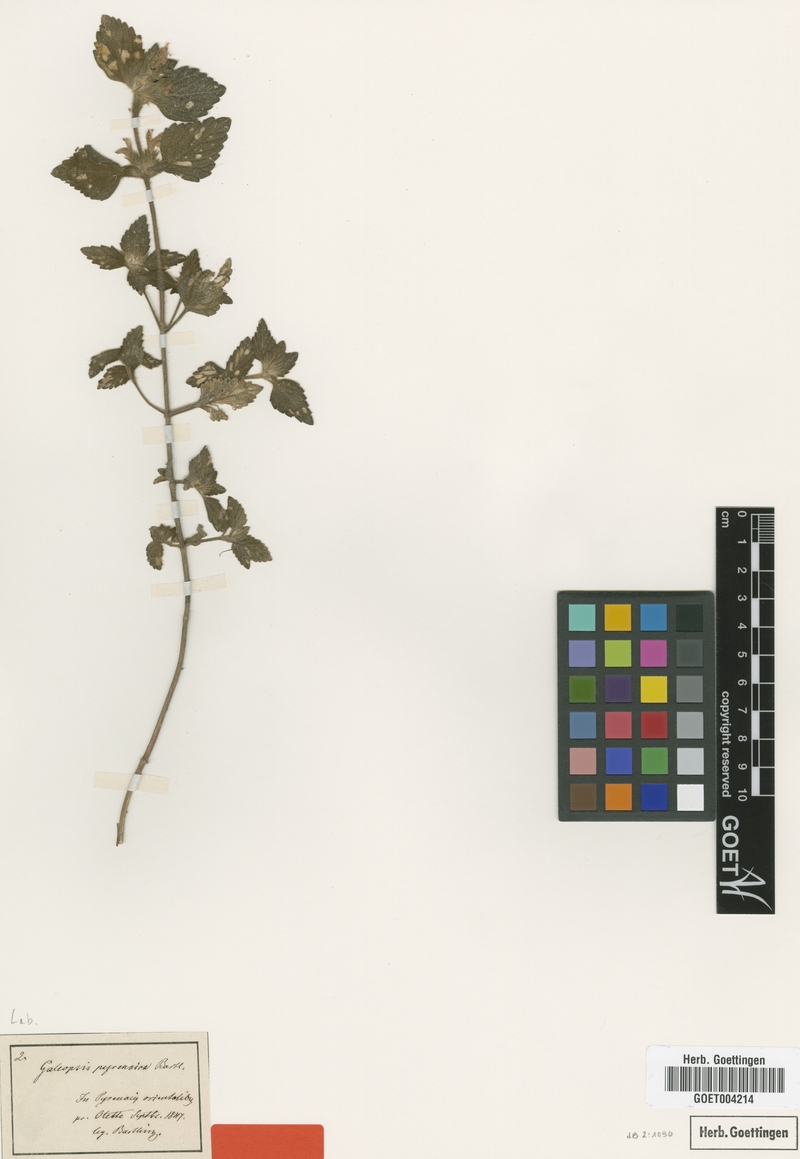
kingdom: Plantae
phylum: Tracheophyta
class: Magnoliopsida
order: Lamiales
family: Lamiaceae
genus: Galeopsis
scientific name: Galeopsis pyrenaica
